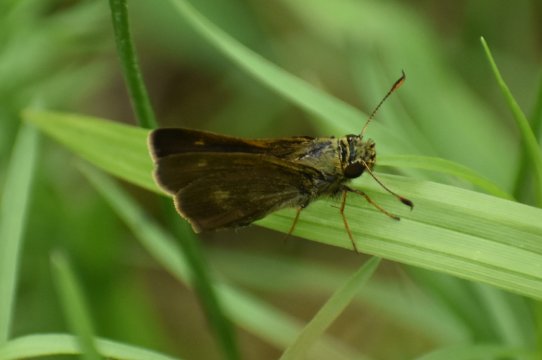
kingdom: Animalia
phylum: Arthropoda
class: Insecta
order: Lepidoptera
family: Hesperiidae
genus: Polites
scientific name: Polites egeremet
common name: Northern Broken-Dash
